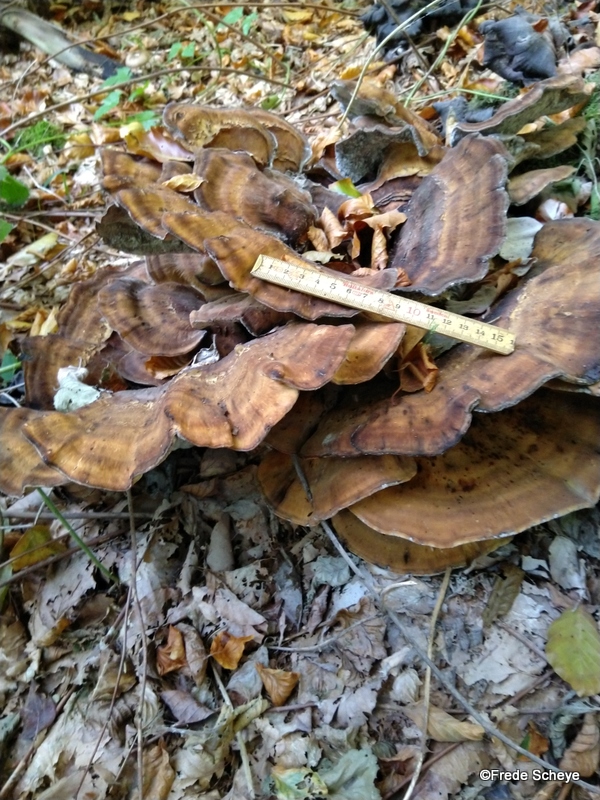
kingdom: Fungi
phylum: Basidiomycota
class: Agaricomycetes
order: Polyporales
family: Meripilaceae
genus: Meripilus
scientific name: Meripilus giganteus
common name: kæmpeporesvamp
